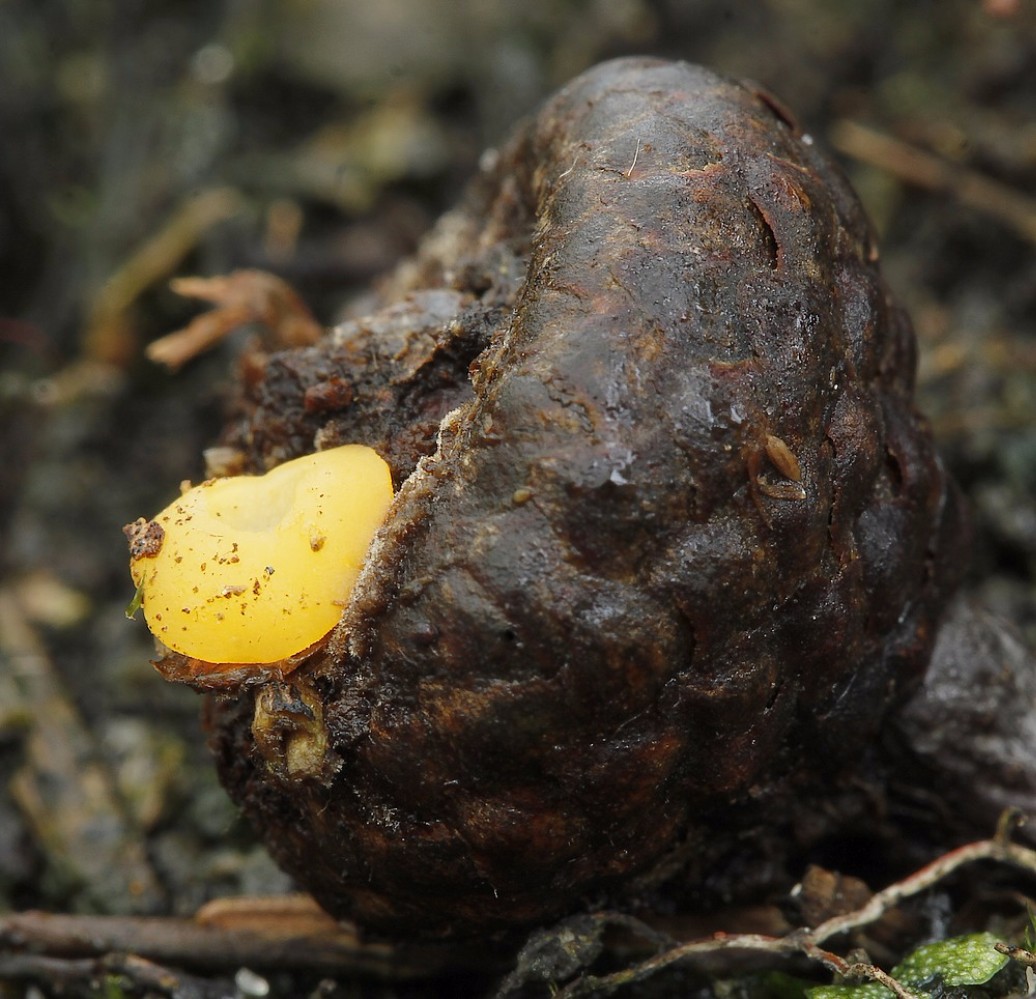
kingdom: Fungi
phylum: Ascomycota
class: Leotiomycetes
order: Helotiales
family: Helotiaceae
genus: Hymenoscyphus
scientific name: Hymenoscyphus
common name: stilkskive
